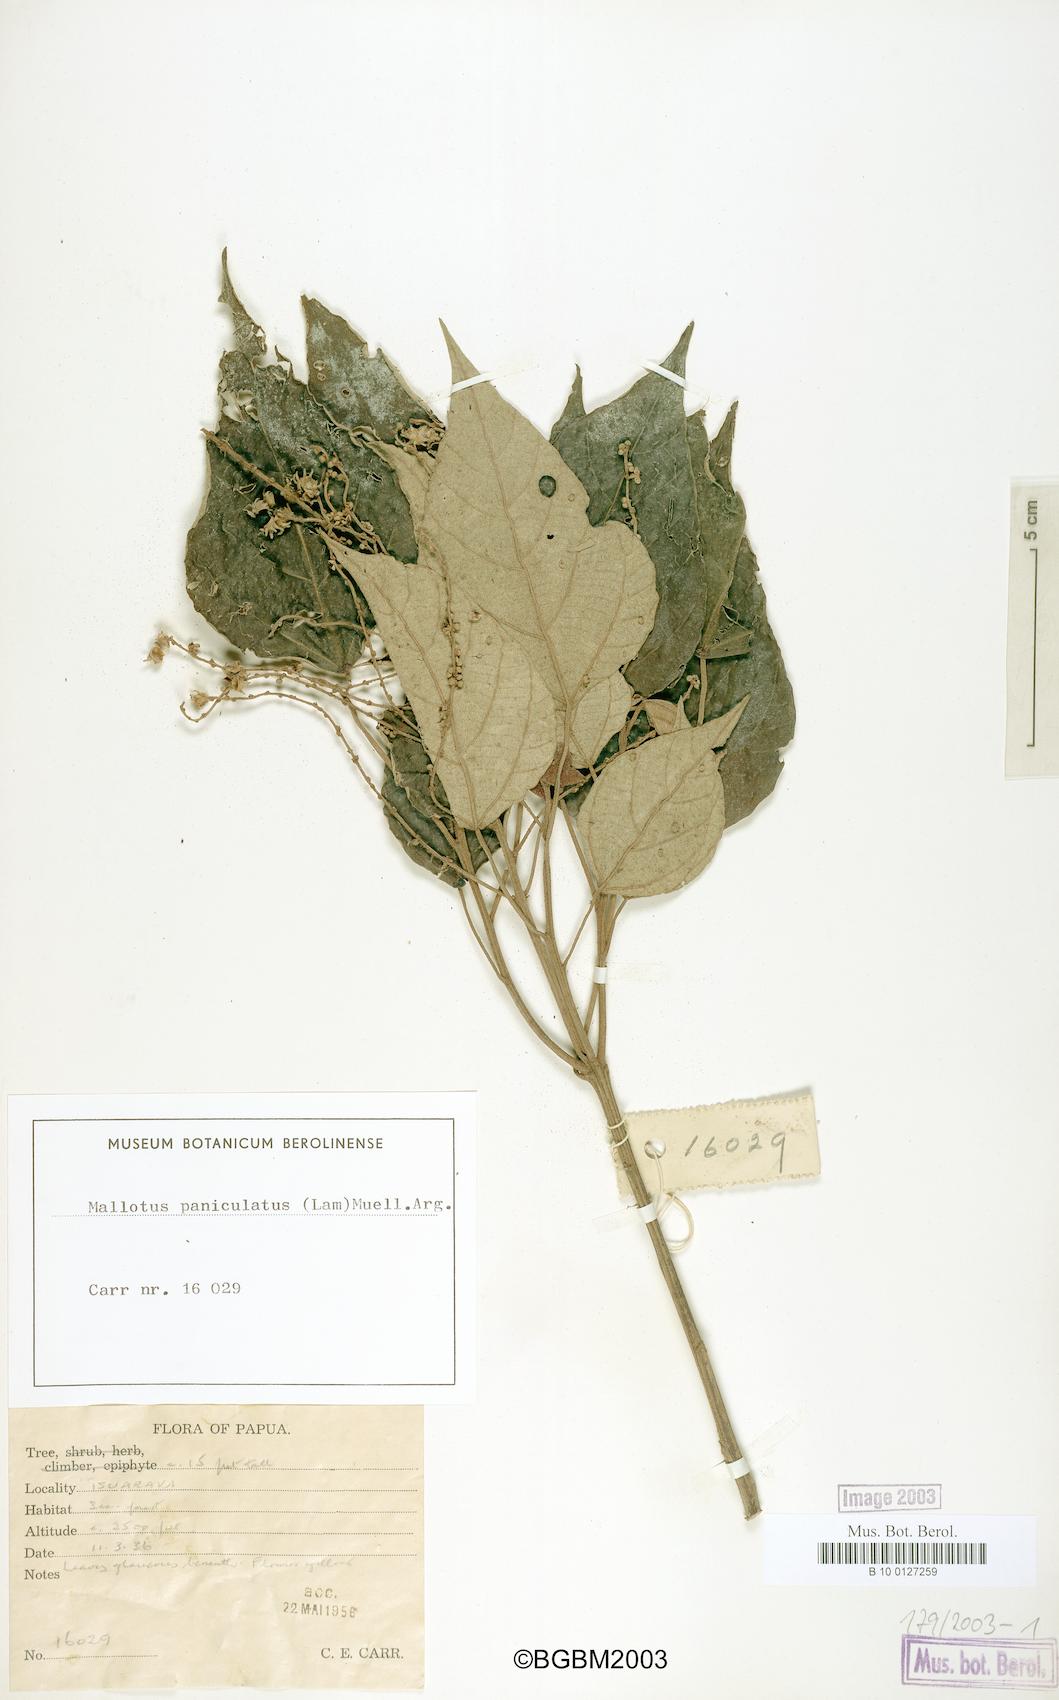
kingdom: Plantae
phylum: Tracheophyta
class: Magnoliopsida
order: Malpighiales
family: Euphorbiaceae
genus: Mallotus
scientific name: Mallotus paniculatus
